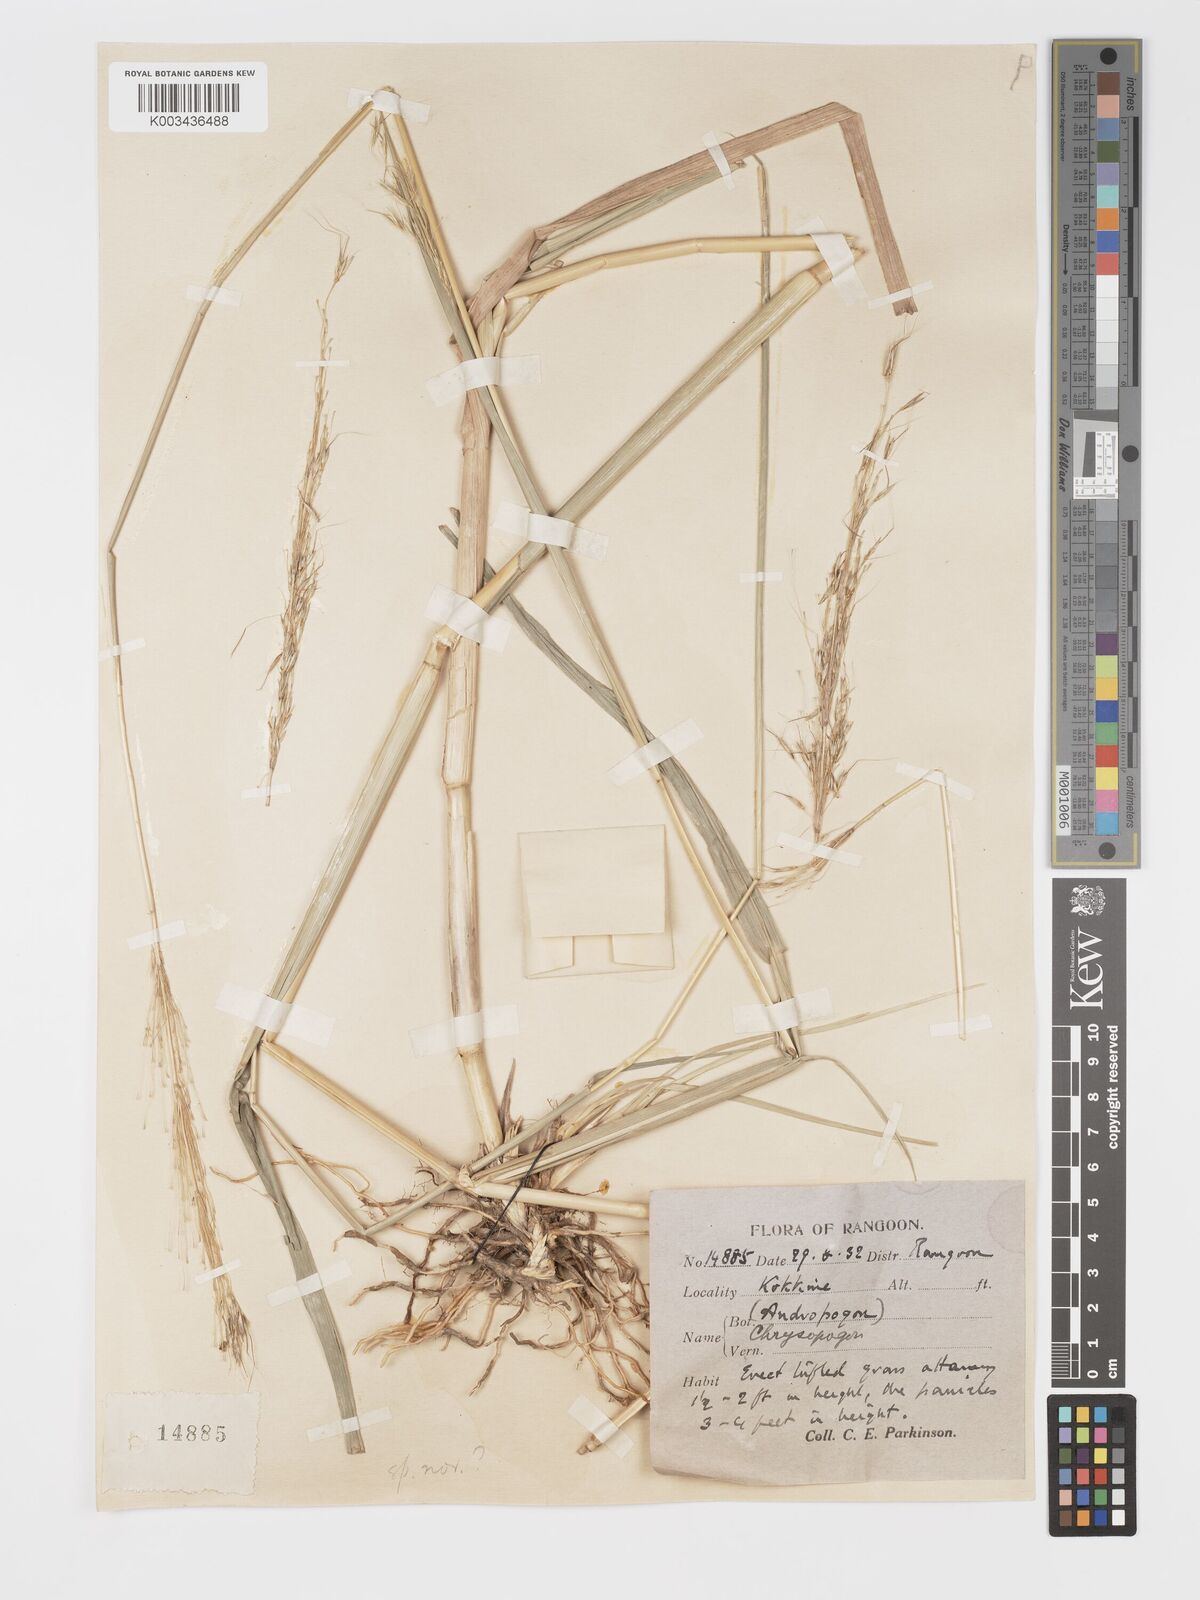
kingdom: Plantae
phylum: Tracheophyta
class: Liliopsida
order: Poales
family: Poaceae
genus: Chrysopogon
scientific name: Chrysopogon
